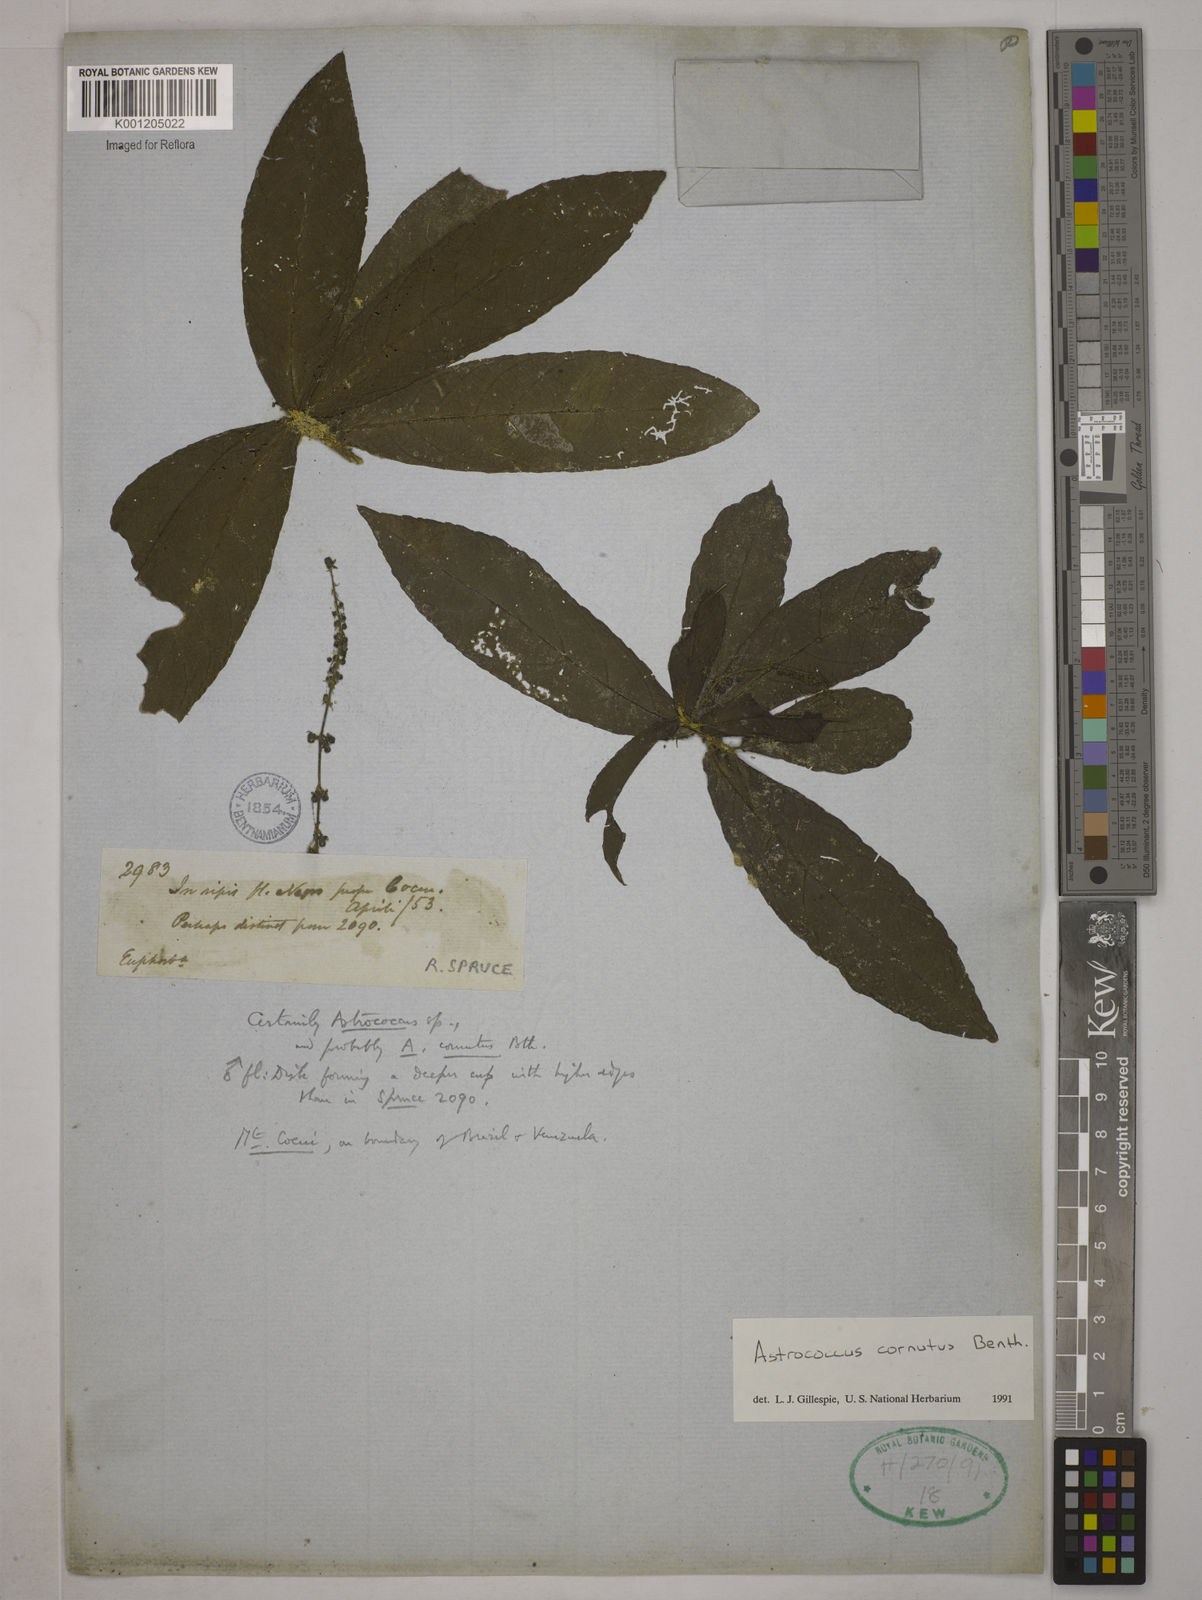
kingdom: Plantae
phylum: Tracheophyta
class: Magnoliopsida
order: Malpighiales
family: Euphorbiaceae
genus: Astrococcus
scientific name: Astrococcus cornutus
